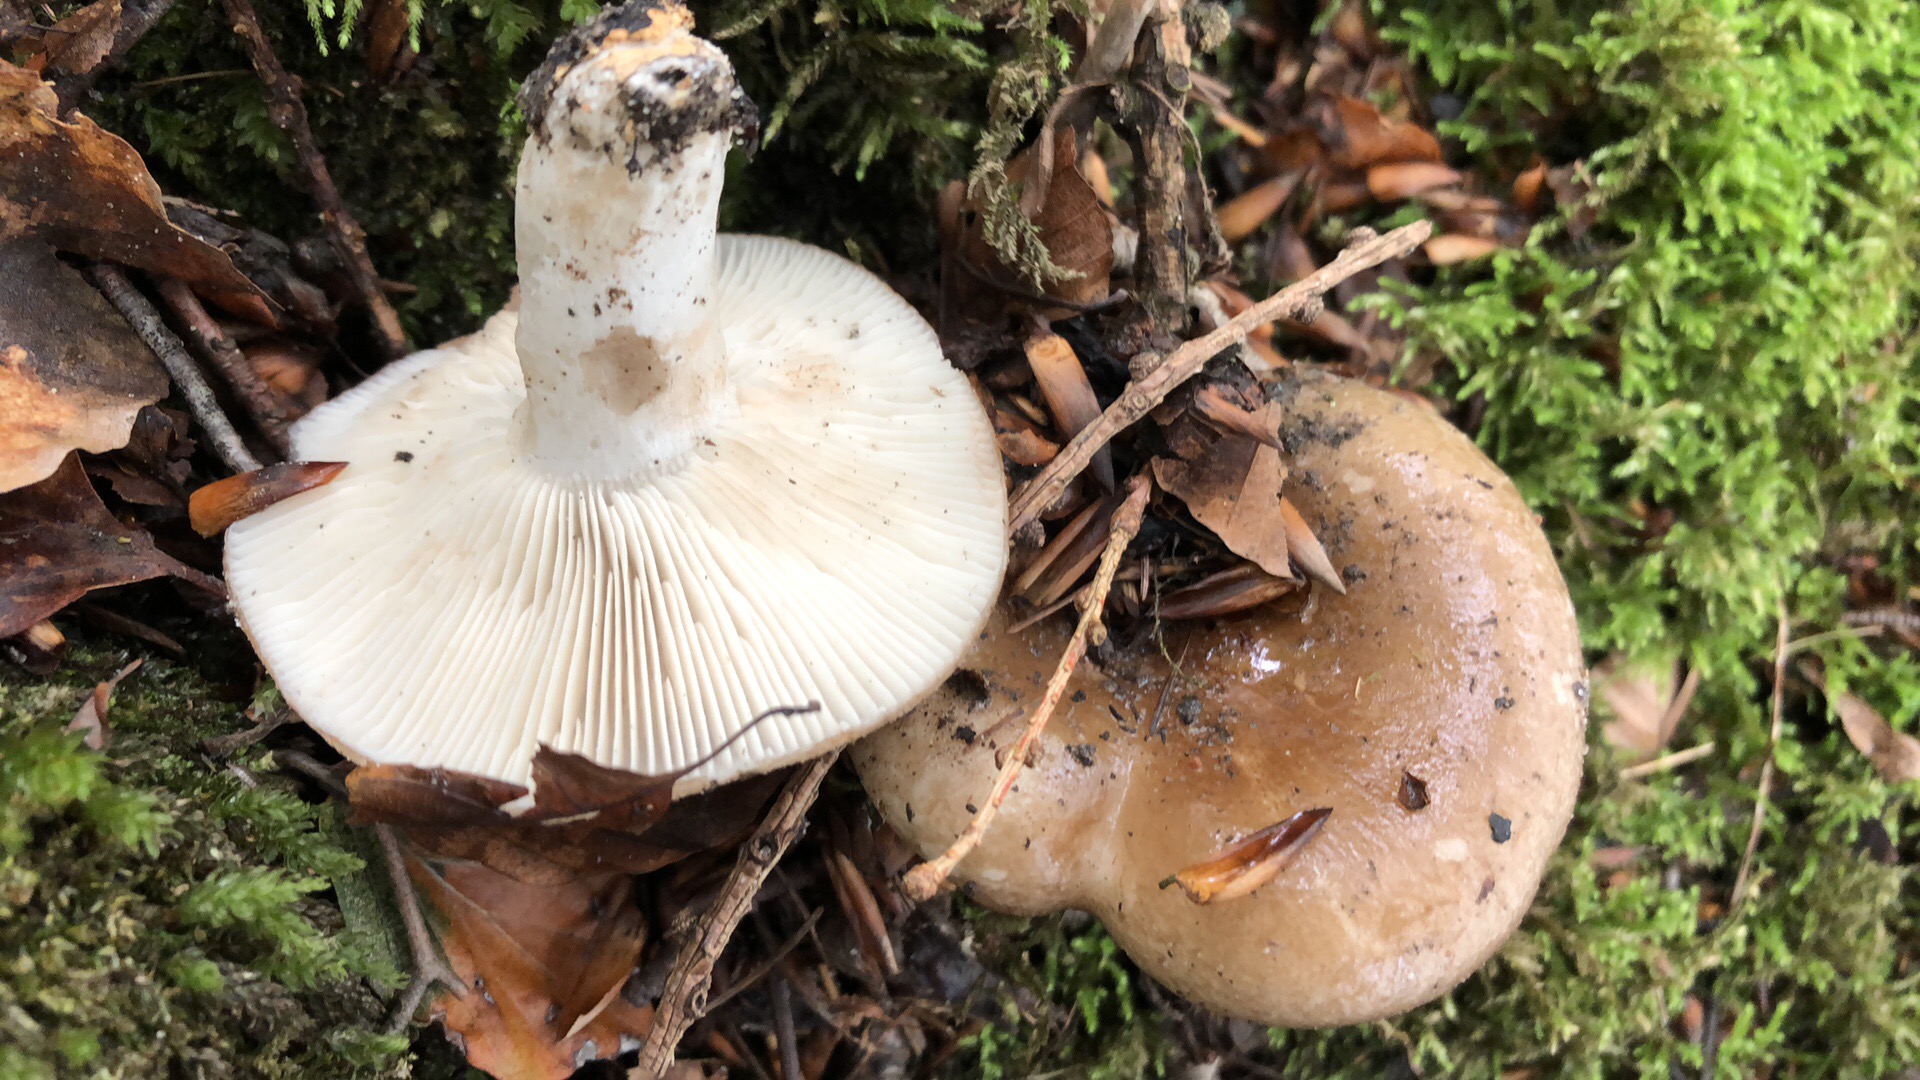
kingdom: Fungi
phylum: Basidiomycota
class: Agaricomycetes
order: Russulales
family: Russulaceae
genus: Russula
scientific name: Russula densifolia
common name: tætbladet skørhat
